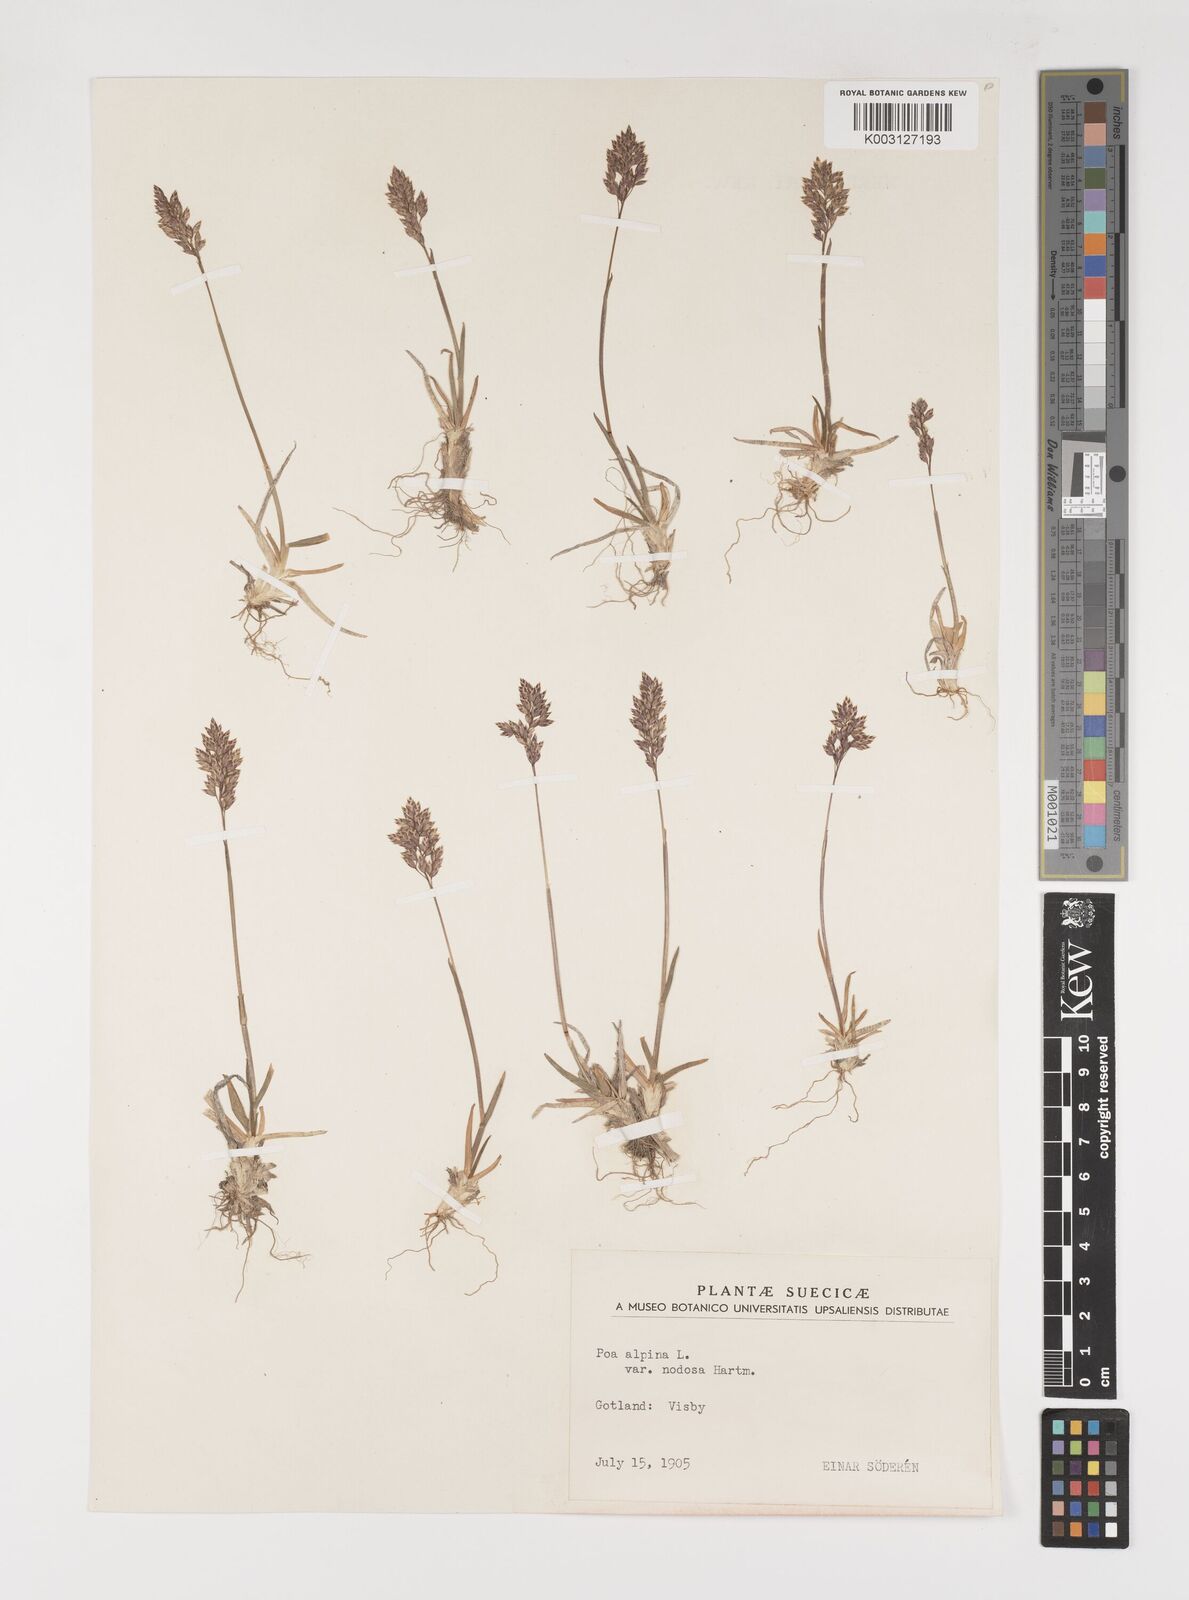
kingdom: Plantae
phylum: Tracheophyta
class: Liliopsida
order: Poales
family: Poaceae
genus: Poa
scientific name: Poa alpina
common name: Alpine bluegrass
